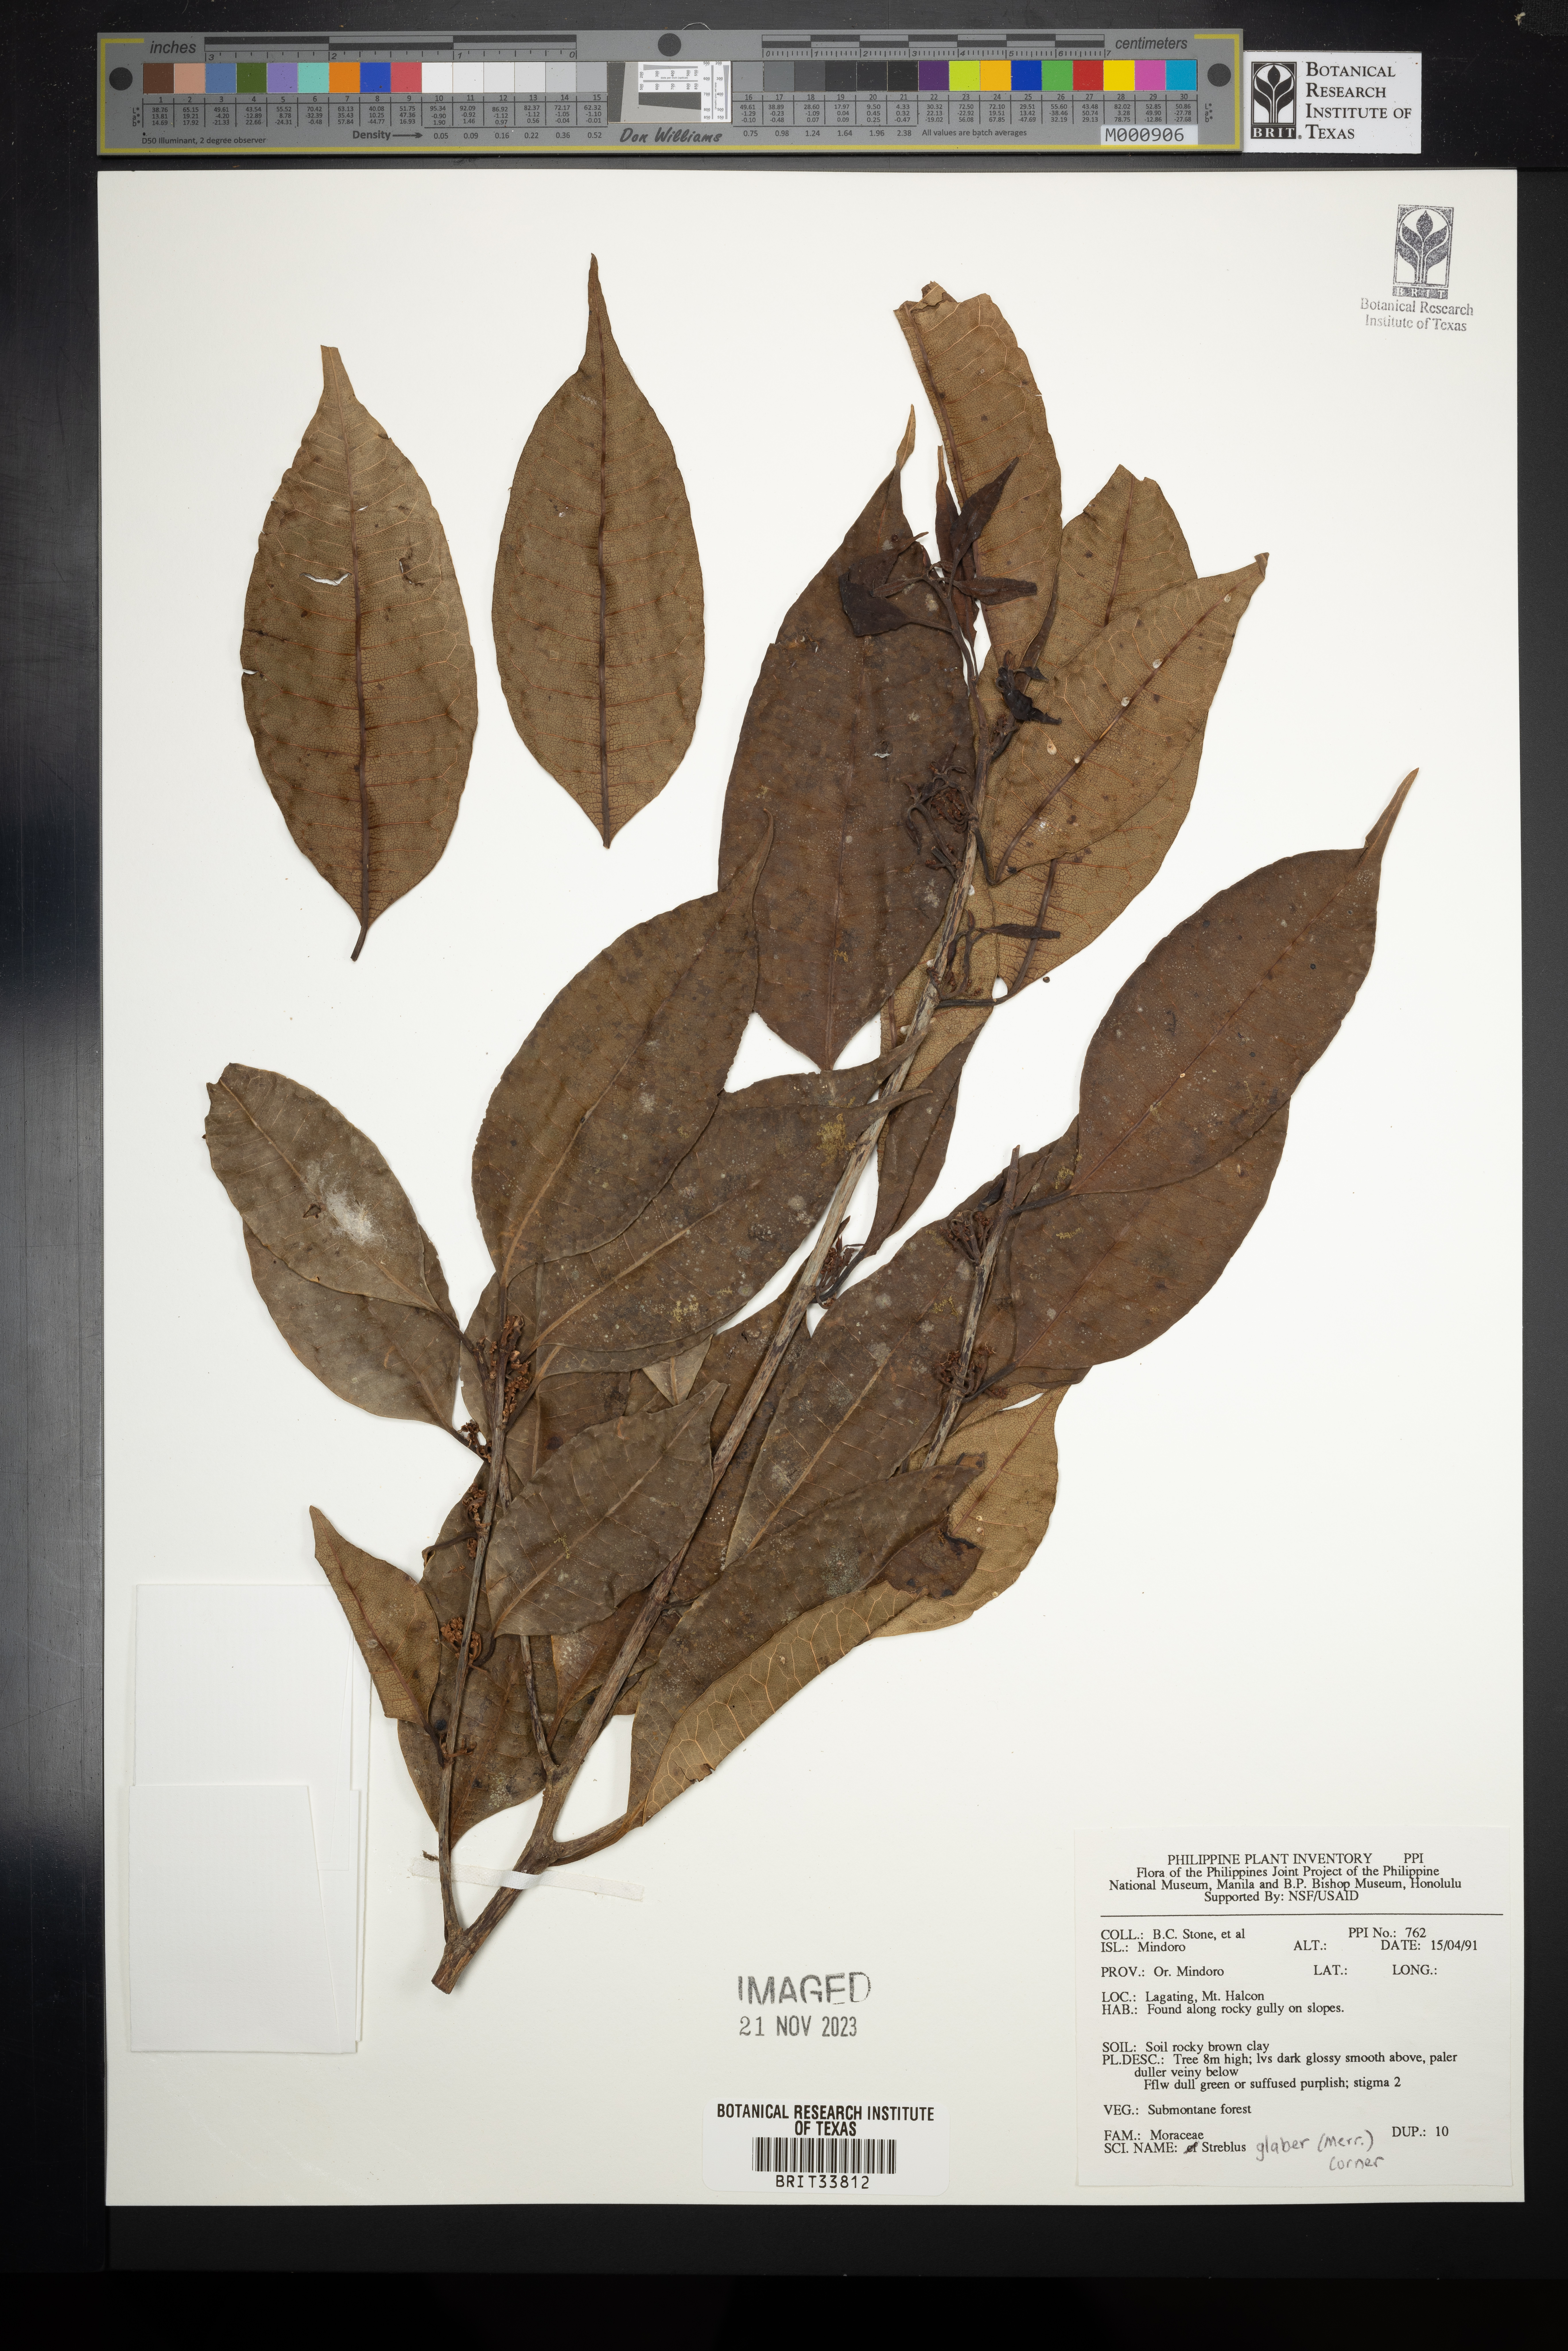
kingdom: Plantae
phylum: Tracheophyta
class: Magnoliopsida
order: Rosales
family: Moraceae
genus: Paratrophis
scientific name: Paratrophis glabra
